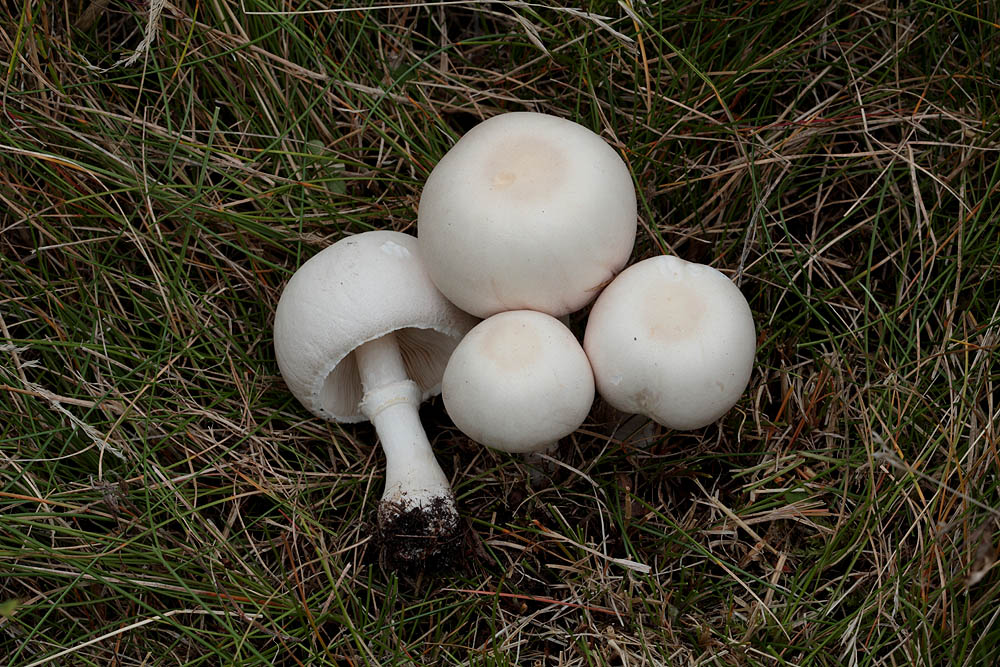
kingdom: Fungi
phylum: Basidiomycota
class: Agaricomycetes
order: Agaricales
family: Agaricaceae
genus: Leucoagaricus
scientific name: Leucoagaricus leucothites
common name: rosabladet silkehat
